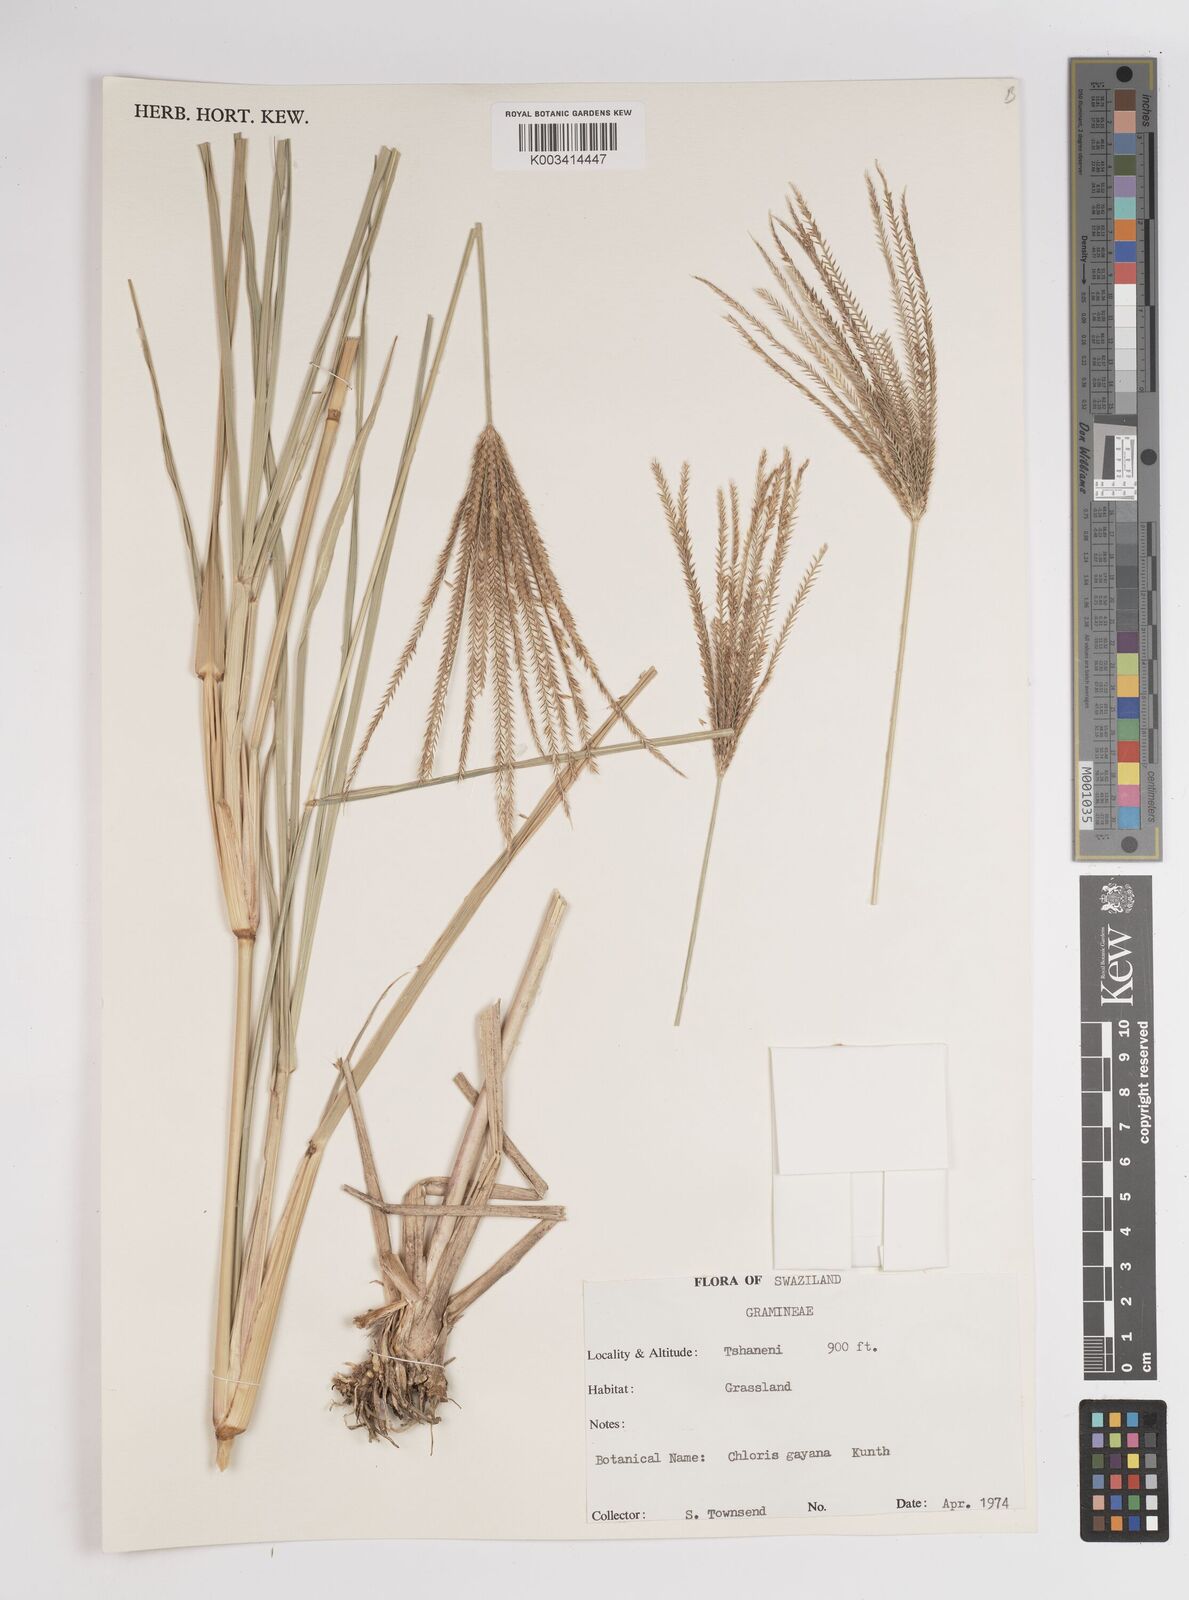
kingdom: Plantae
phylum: Tracheophyta
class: Liliopsida
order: Poales
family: Poaceae
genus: Chloris
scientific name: Chloris gayana
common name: Rhodes grass
